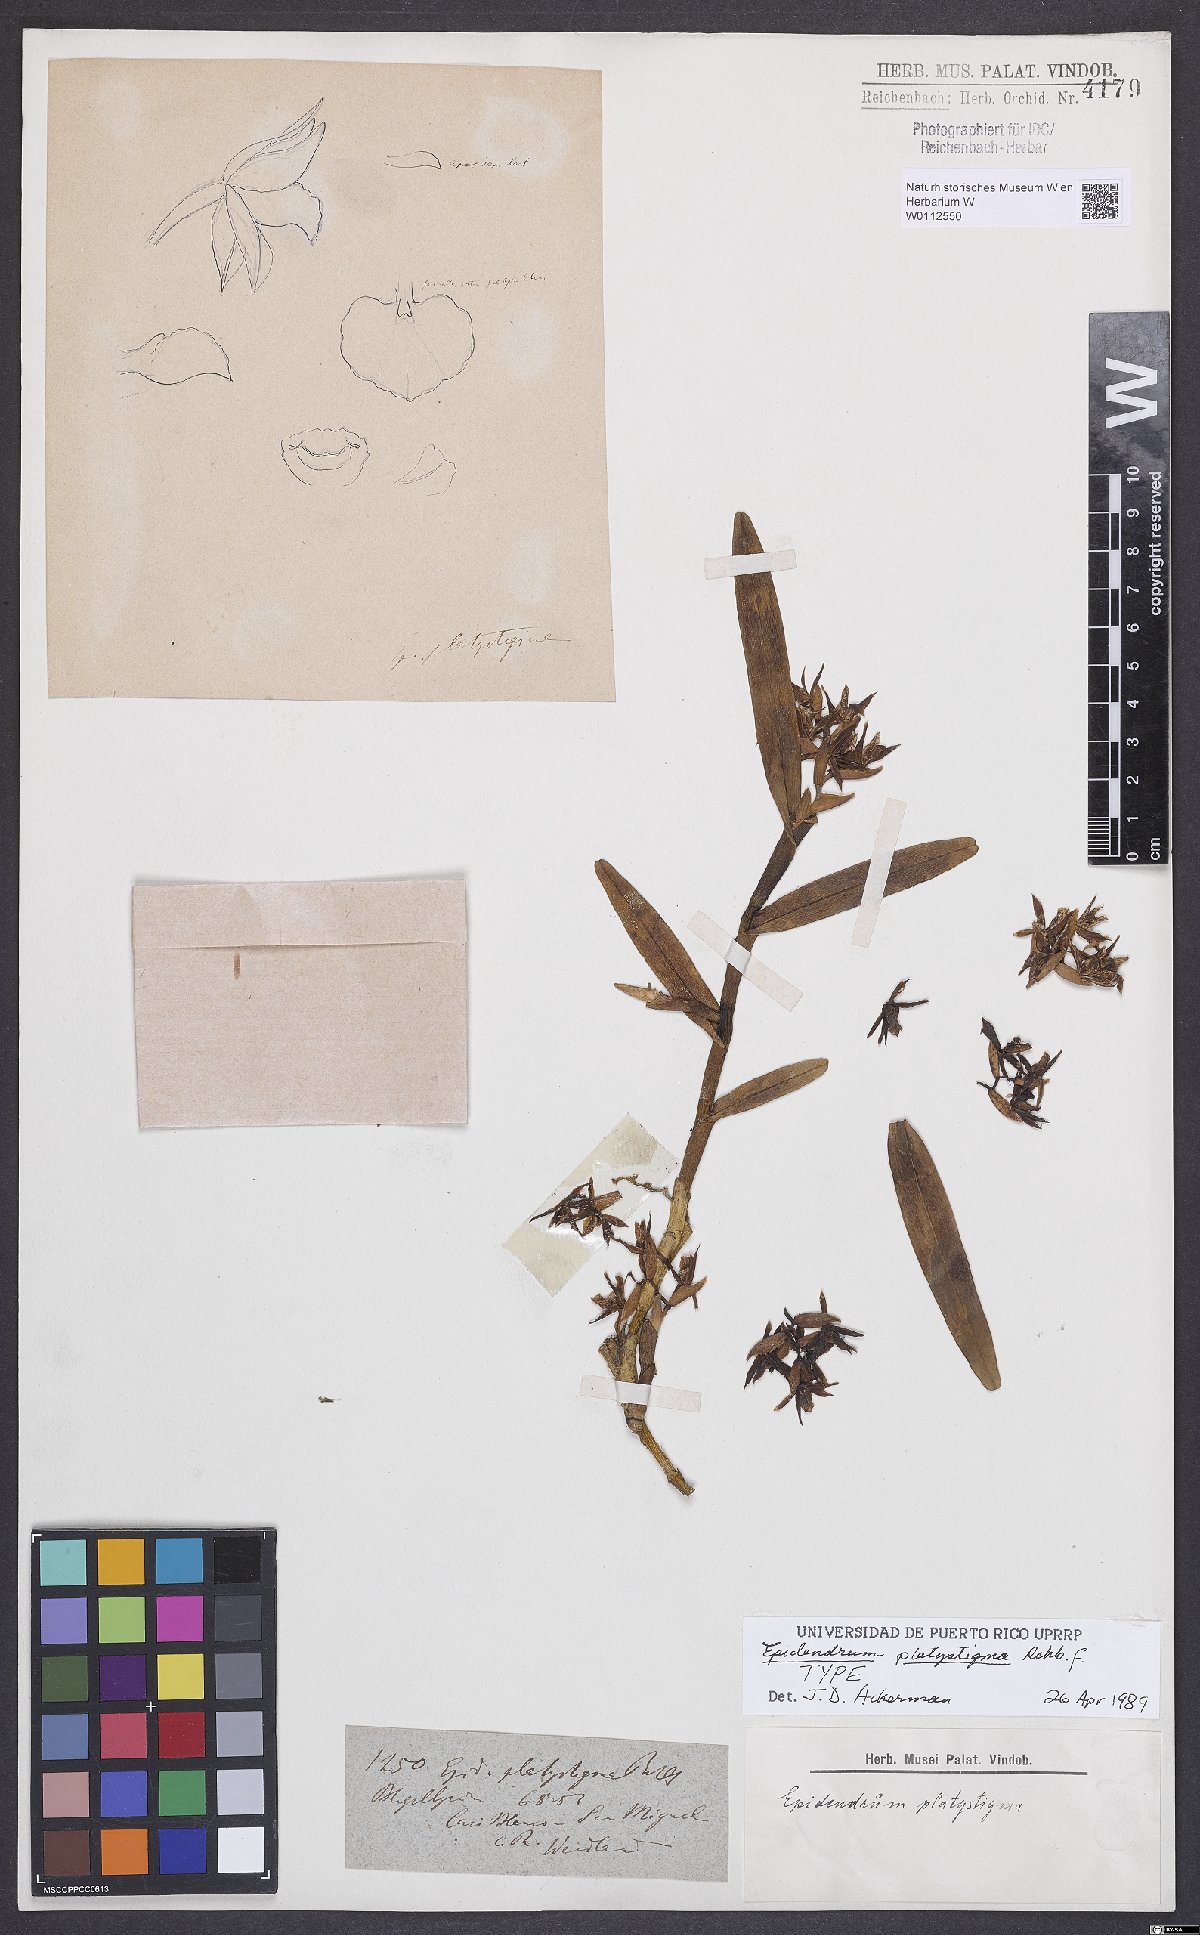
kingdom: Plantae
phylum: Tracheophyta
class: Liliopsida
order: Asparagales
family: Orchidaceae
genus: Epidendrum
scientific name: Epidendrum platystigma
